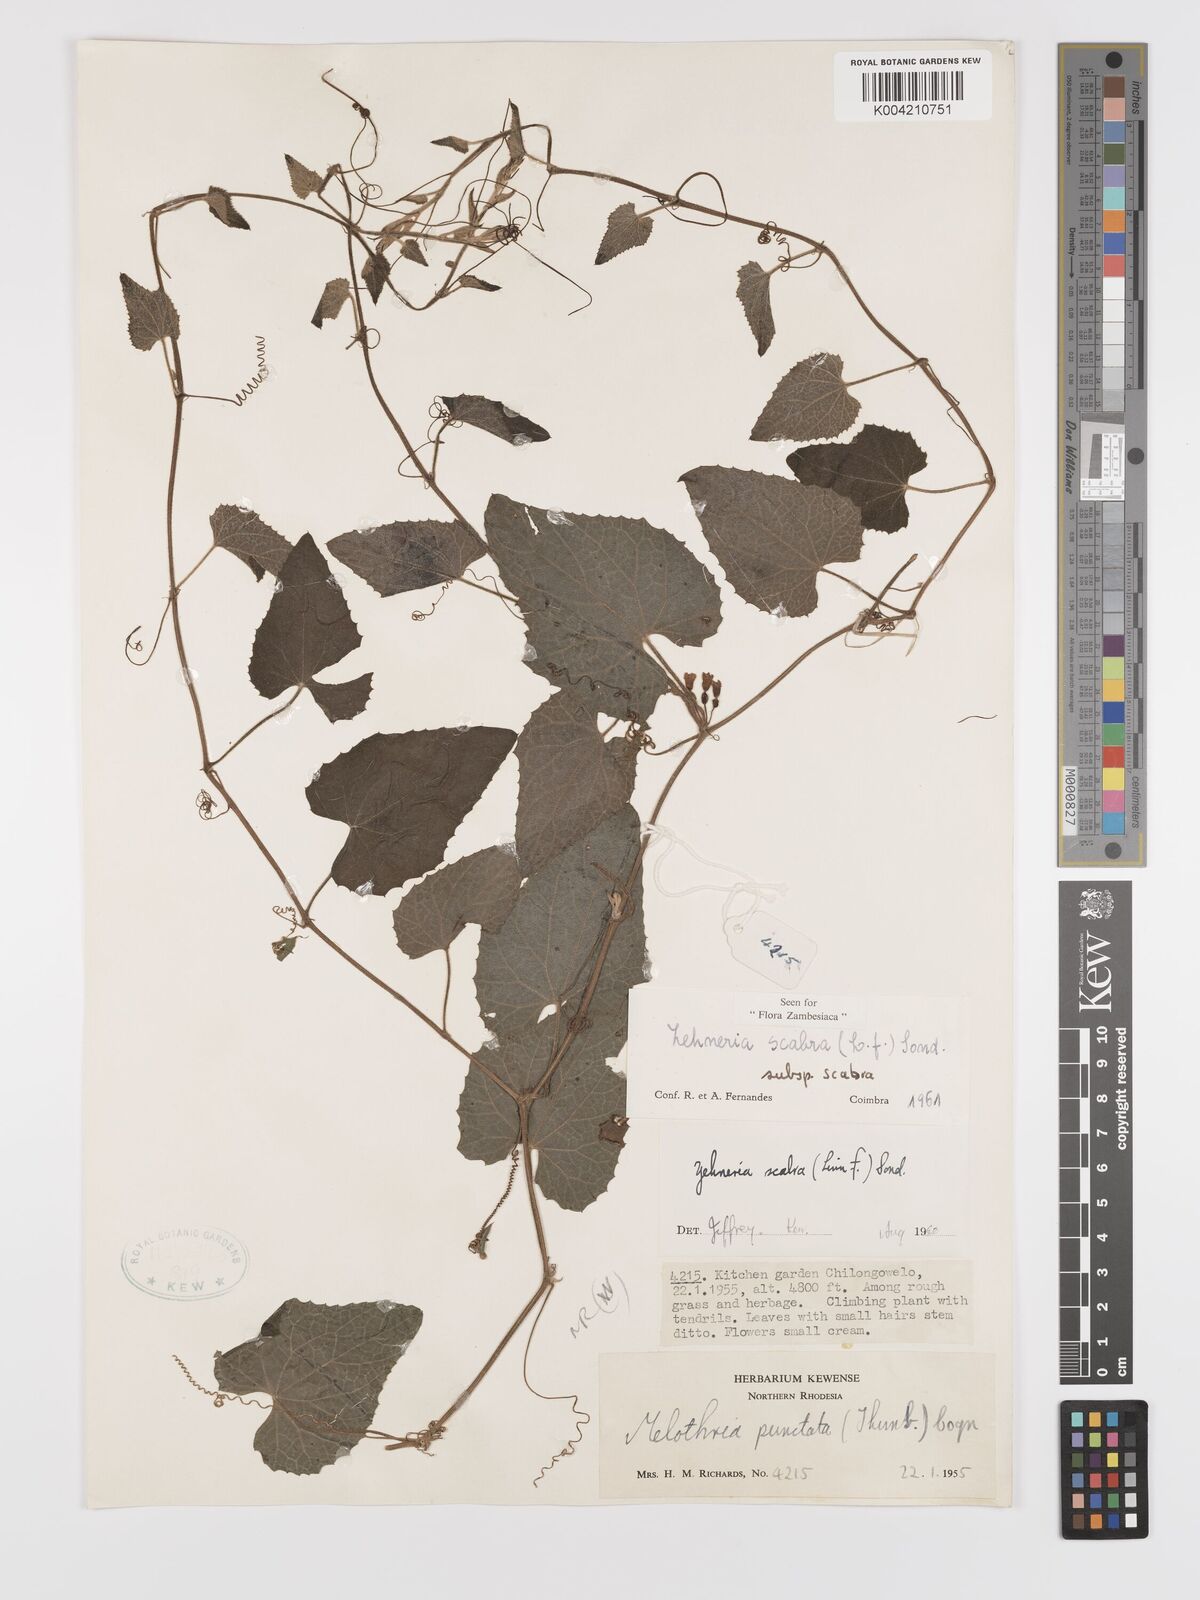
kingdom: Plantae
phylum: Tracheophyta
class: Magnoliopsida
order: Cucurbitales
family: Cucurbitaceae
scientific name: Cucurbitaceae
